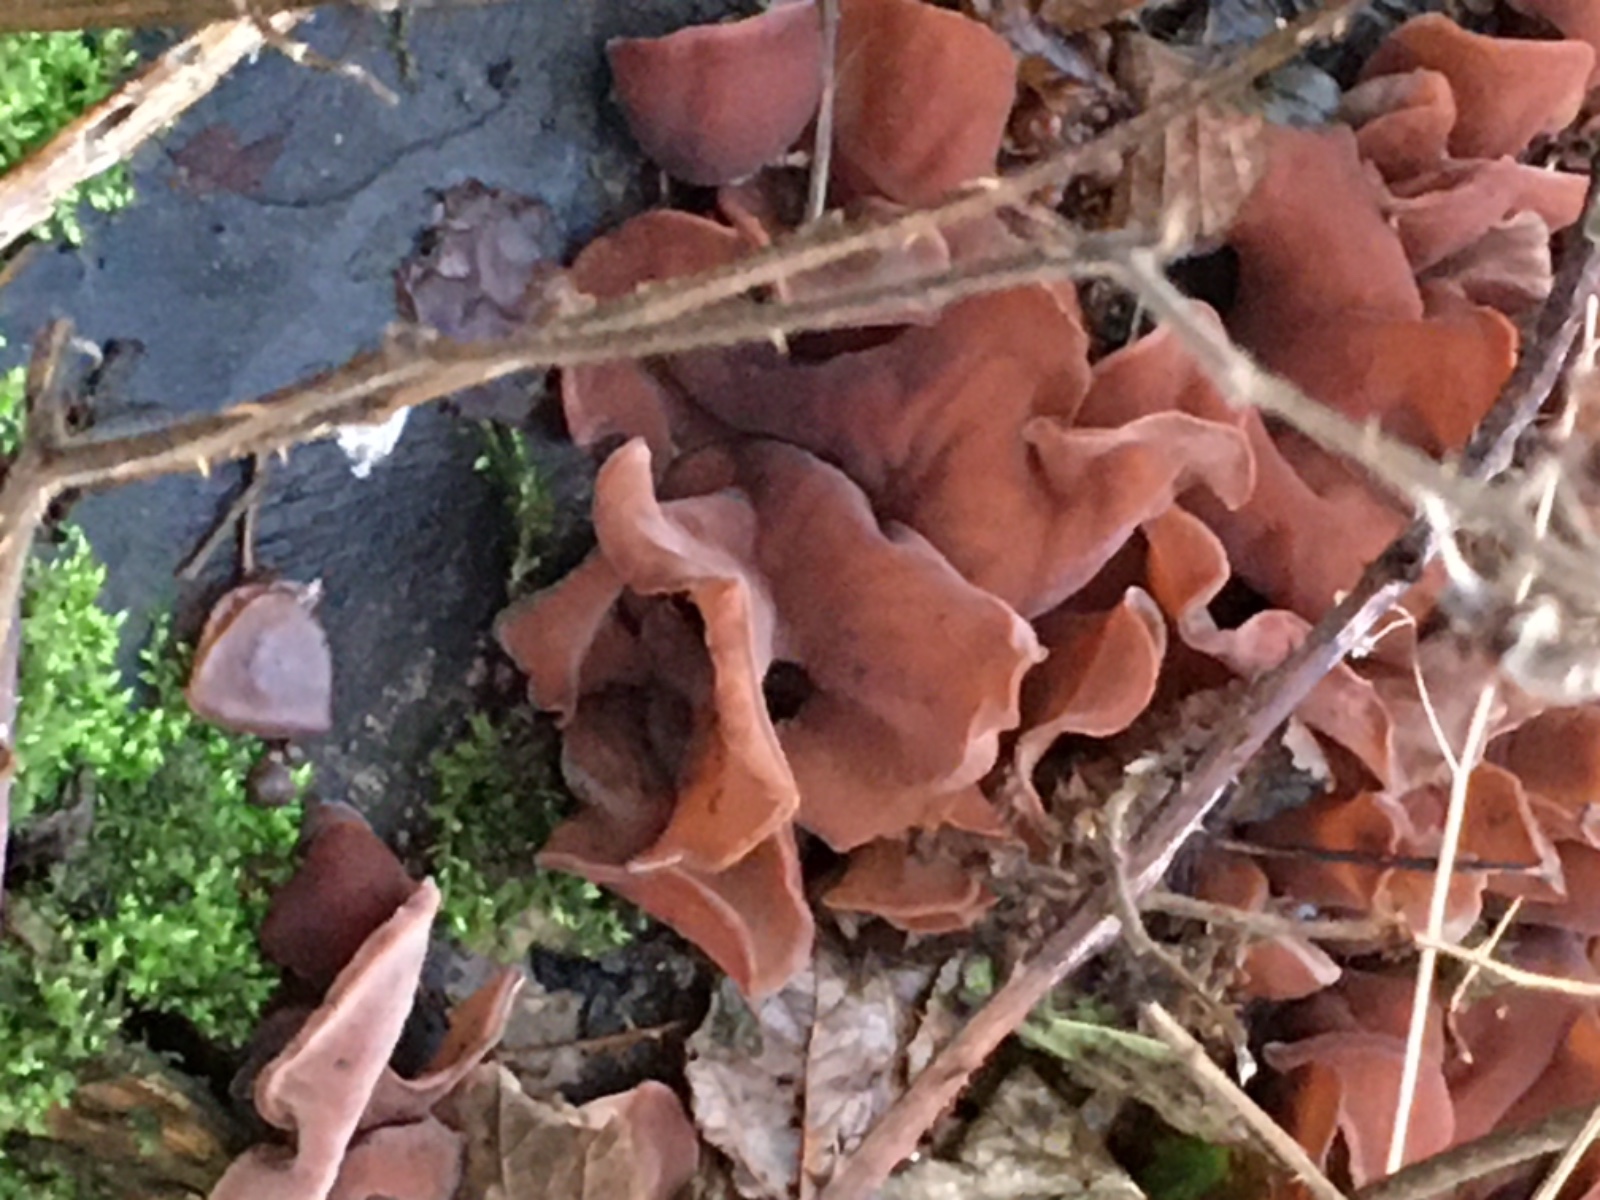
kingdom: Fungi
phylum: Basidiomycota
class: Agaricomycetes
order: Auriculariales
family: Auriculariaceae
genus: Auricularia
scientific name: Auricularia auricula-judae
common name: almindelig judasøre
